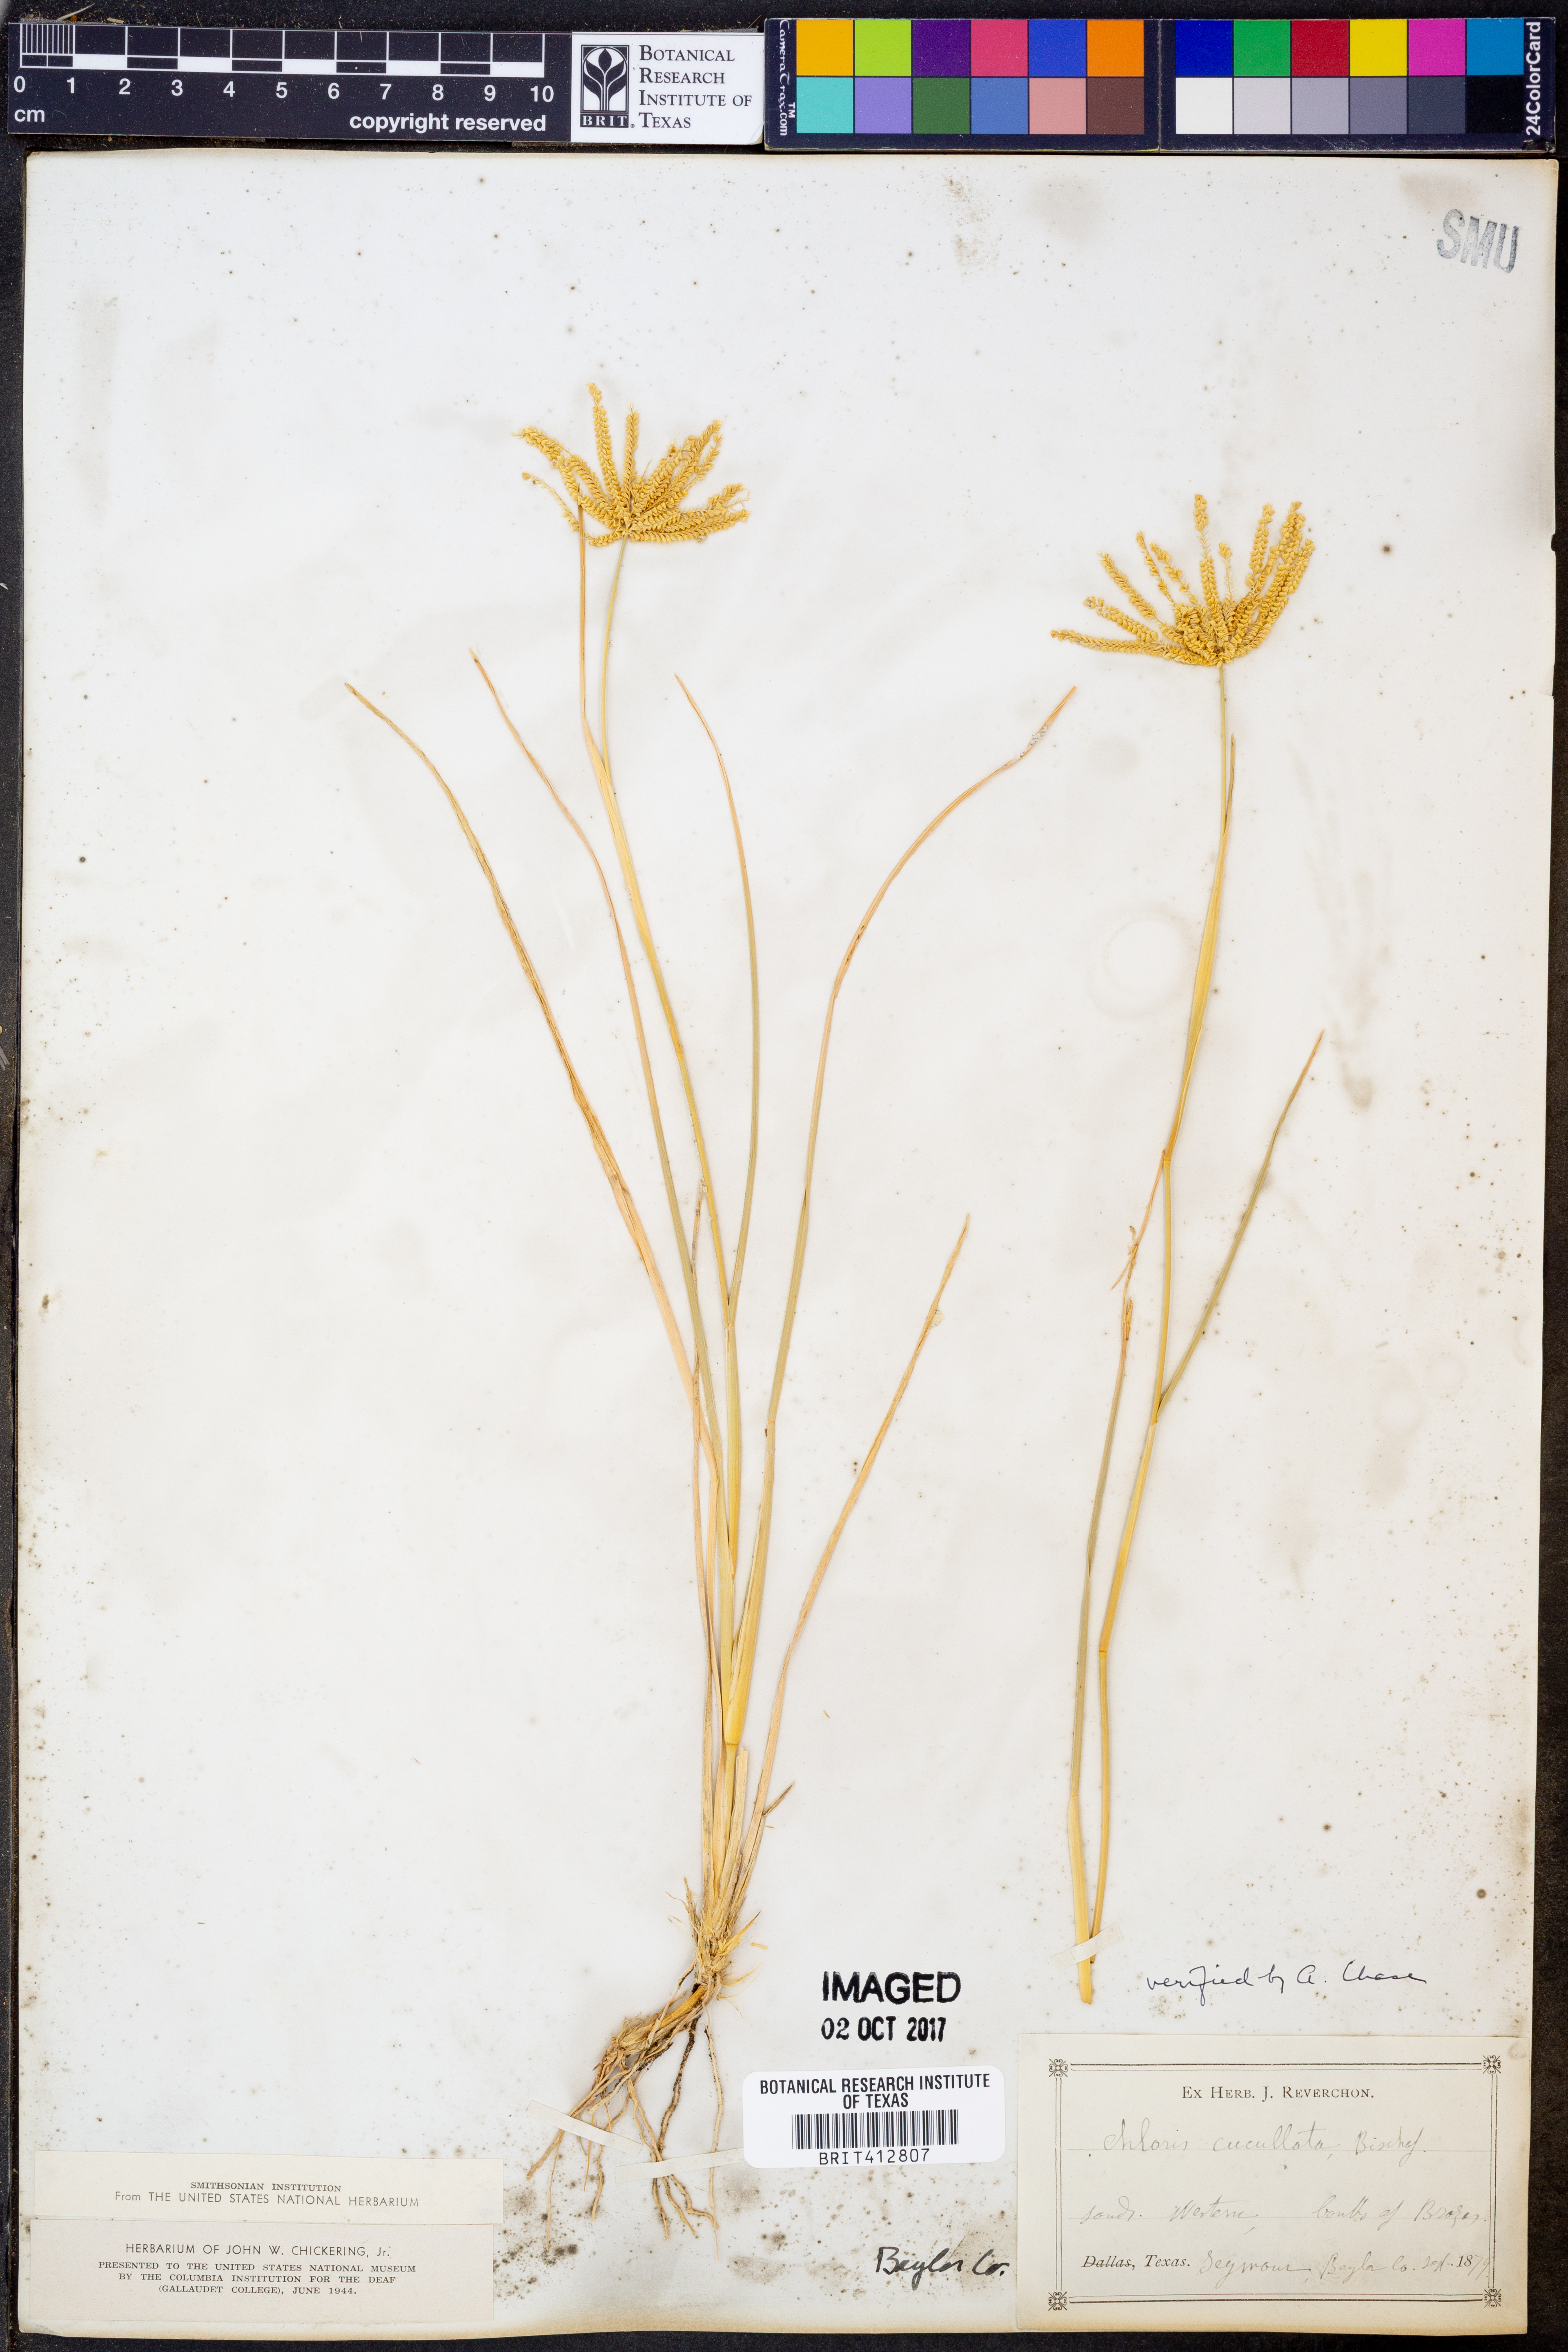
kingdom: Plantae
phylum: Tracheophyta
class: Liliopsida
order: Poales
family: Poaceae
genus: Chloris
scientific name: Chloris cucullata
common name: Hooded windmill grass
